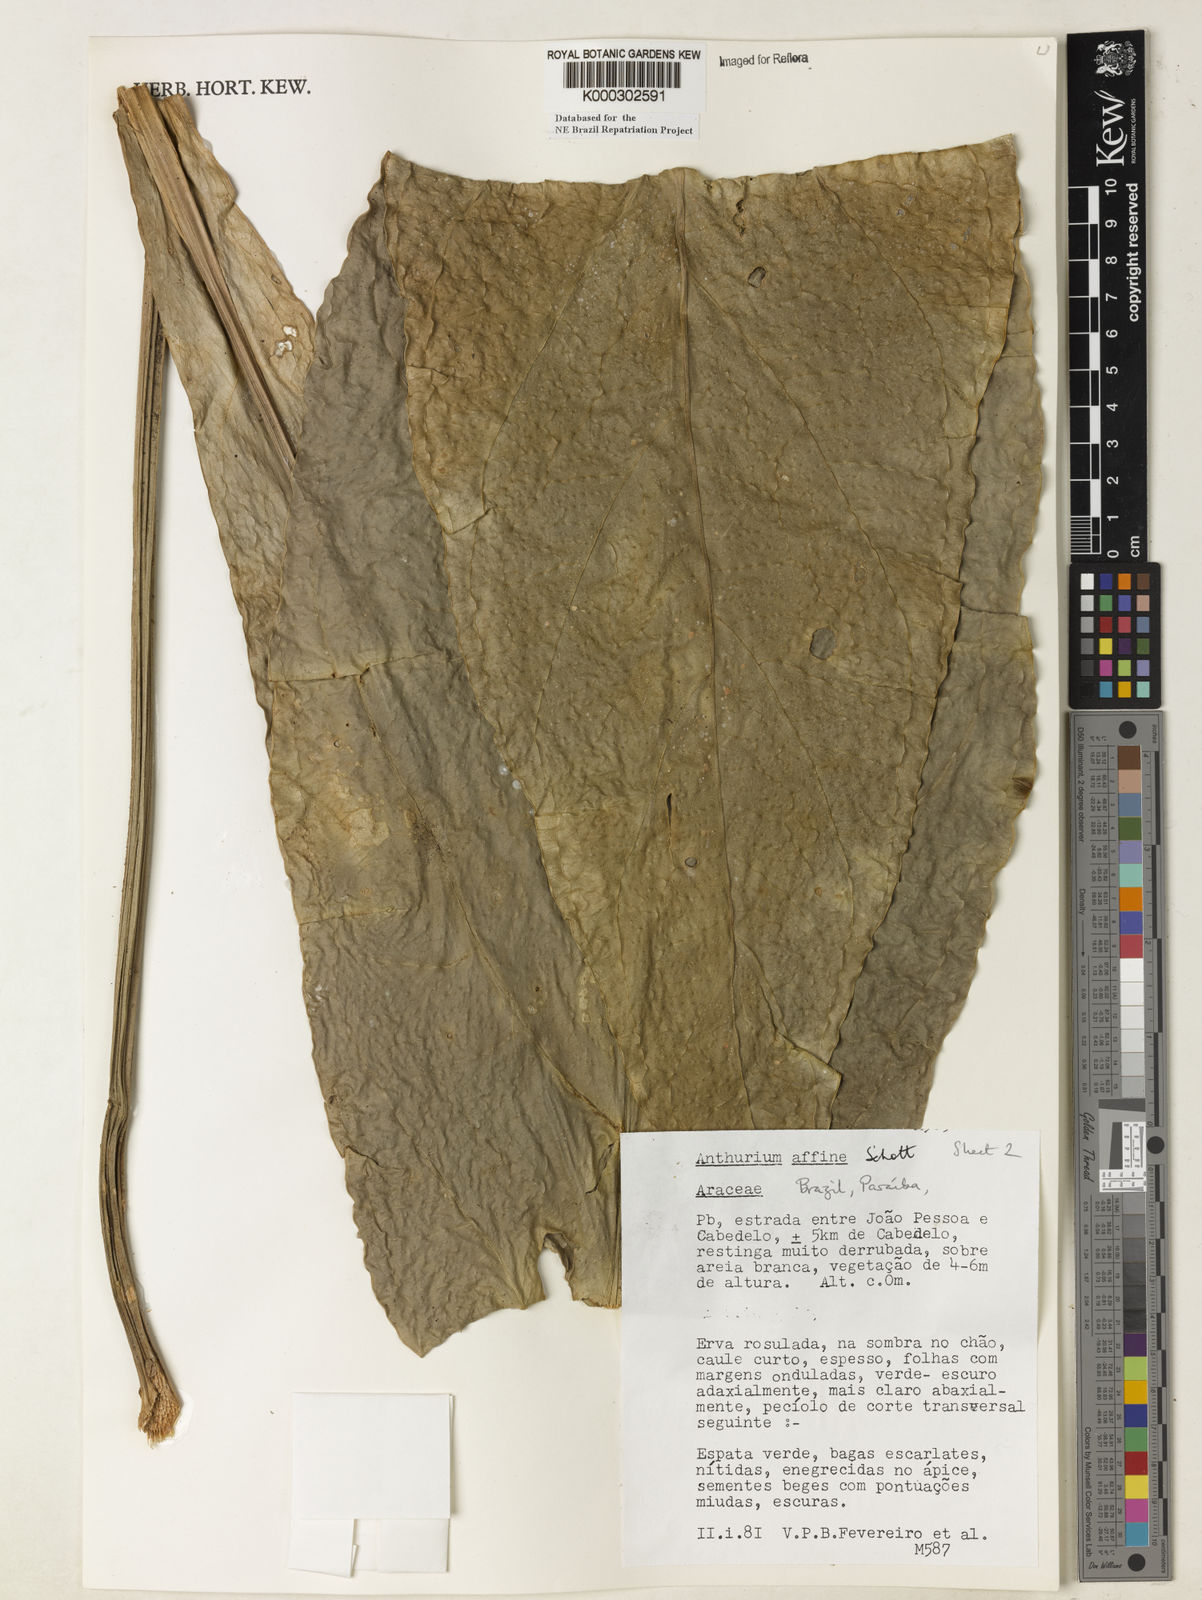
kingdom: Plantae
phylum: Tracheophyta
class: Liliopsida
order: Alismatales
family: Araceae
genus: Anthurium
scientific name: Anthurium affine
